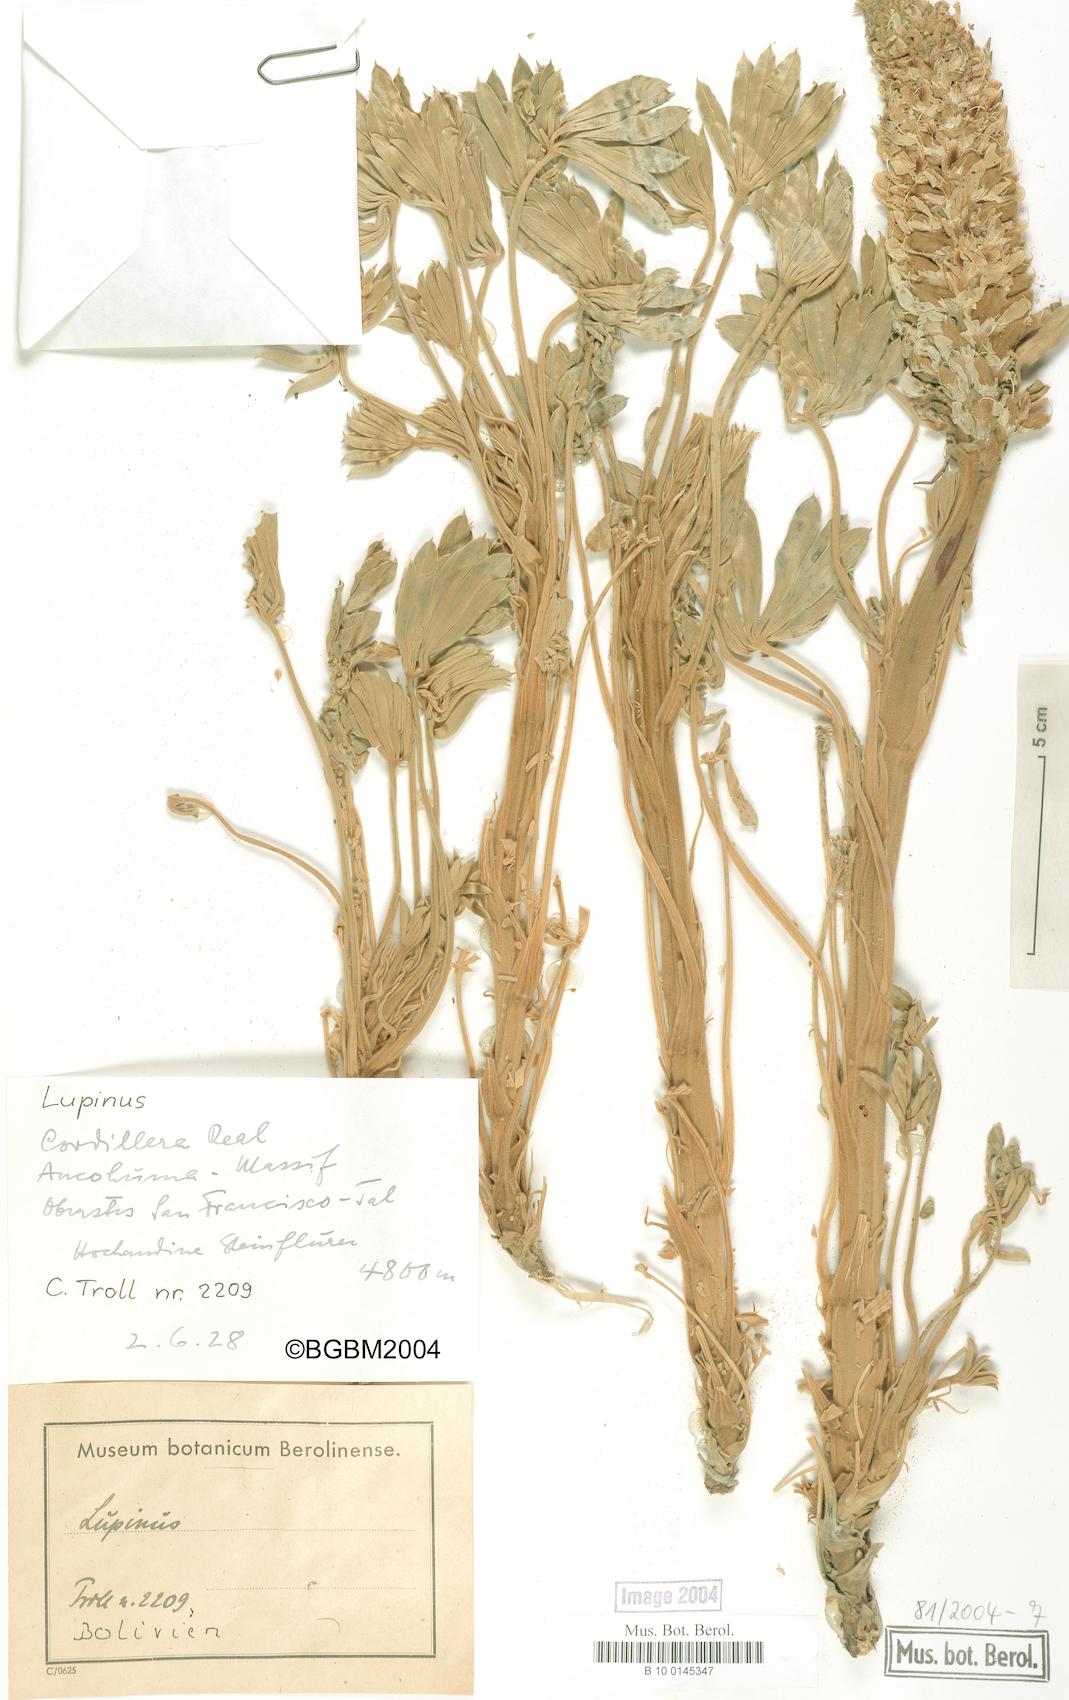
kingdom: Plantae
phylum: Tracheophyta
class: Magnoliopsida
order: Fabales
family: Fabaceae
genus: Lupinus
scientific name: Lupinus
